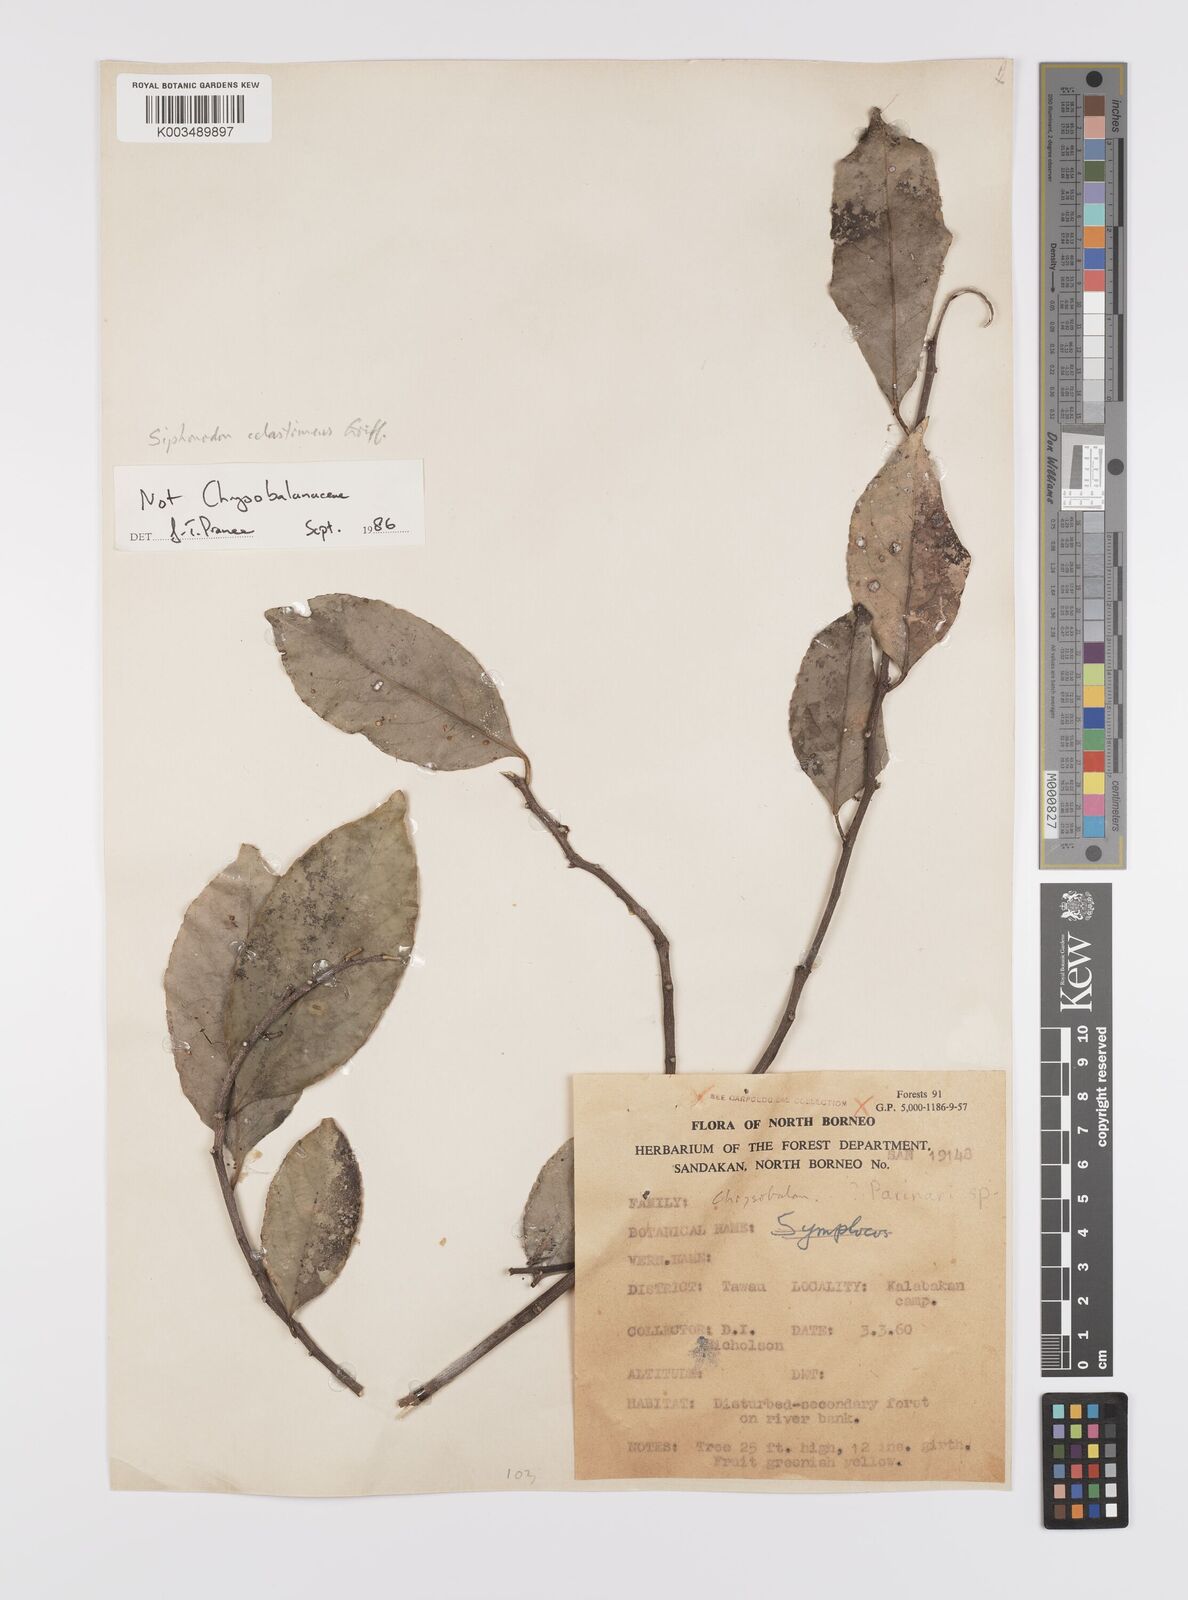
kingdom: Plantae
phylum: Tracheophyta
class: Magnoliopsida
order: Celastrales
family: Celastraceae
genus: Siphonodon
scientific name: Siphonodon celastrineus
